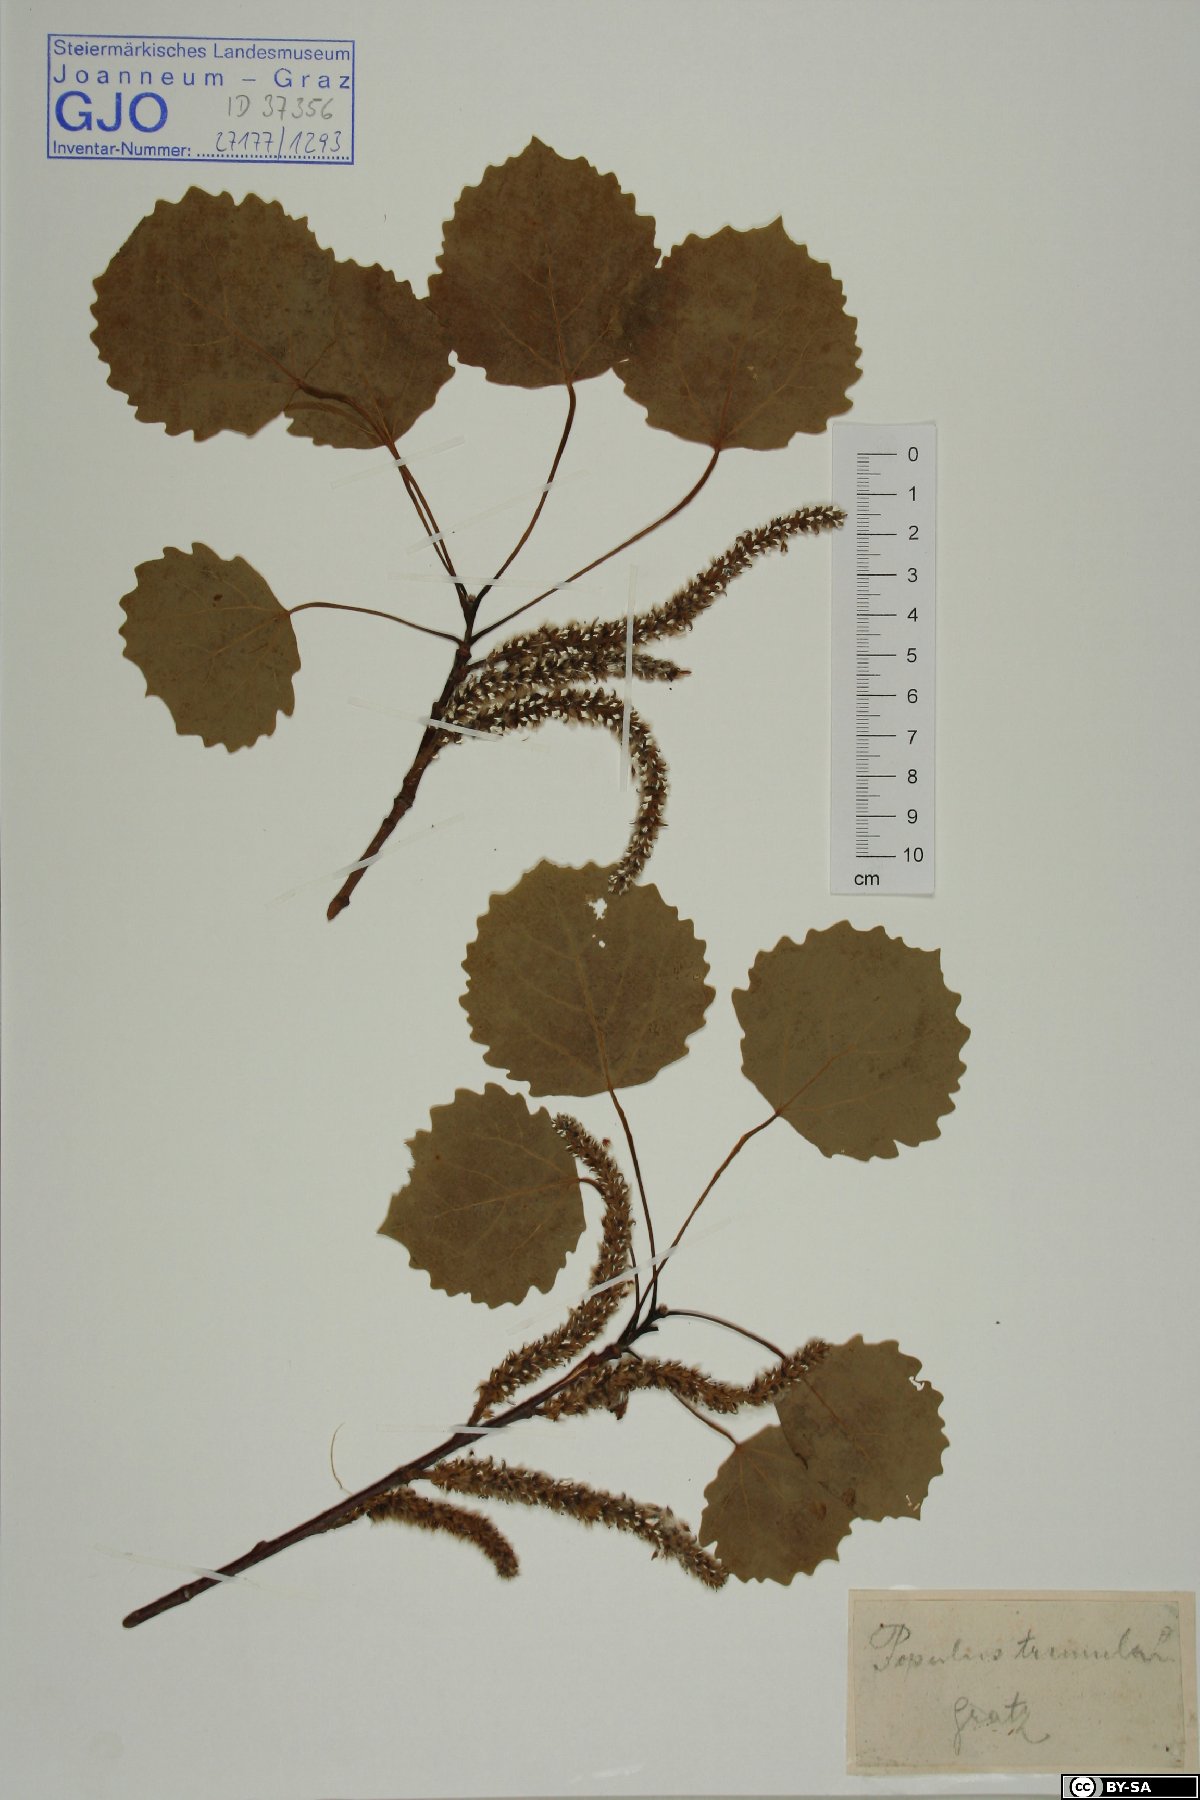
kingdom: Plantae
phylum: Tracheophyta
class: Magnoliopsida
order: Malpighiales
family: Salicaceae
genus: Populus
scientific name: Populus tremula
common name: European aspen
